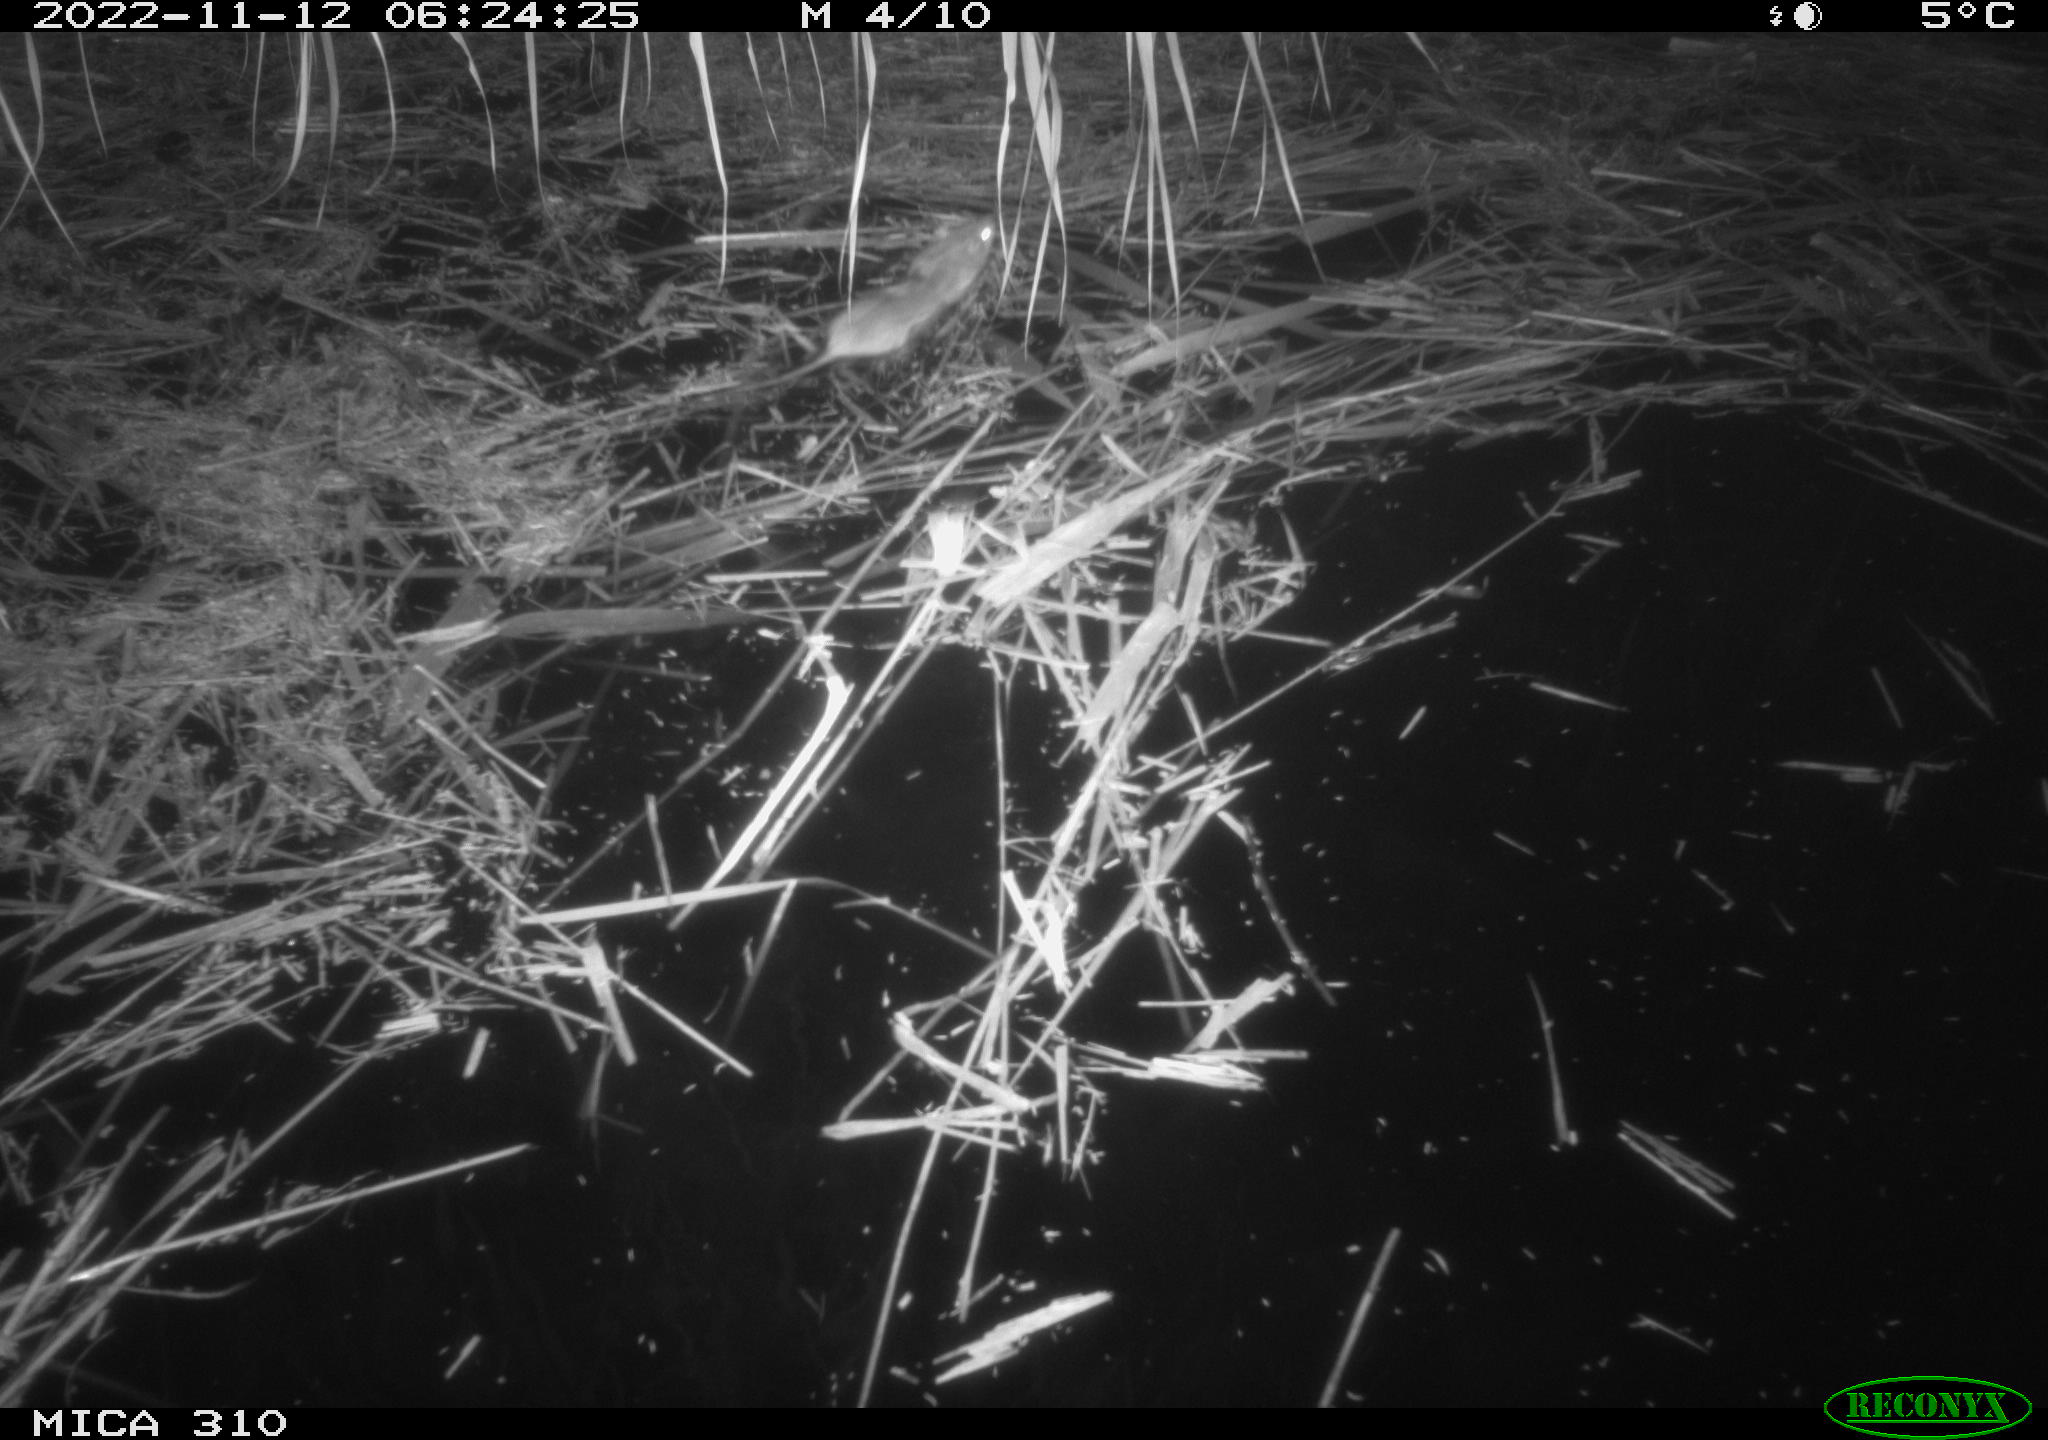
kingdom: Animalia
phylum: Chordata
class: Mammalia
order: Rodentia
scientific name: Rodentia
